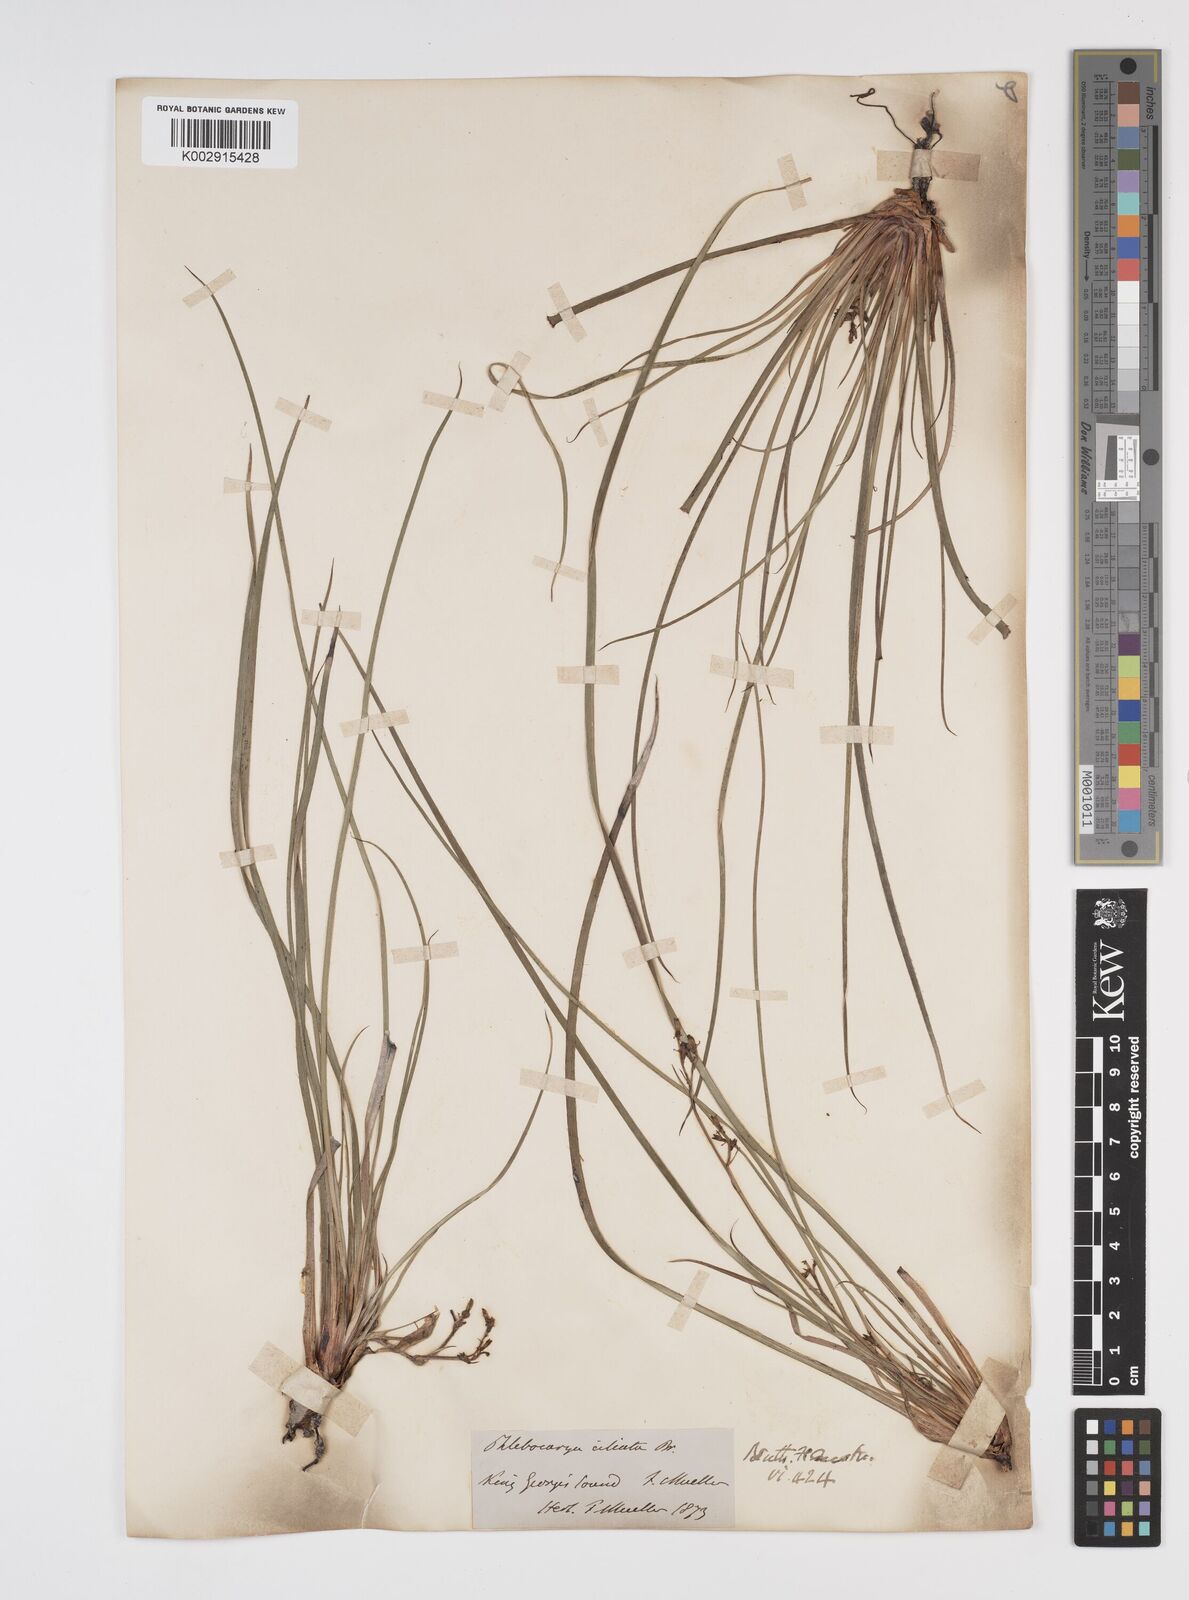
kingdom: Plantae
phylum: Tracheophyta
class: Liliopsida
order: Commelinales
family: Haemodoraceae
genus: Phlebocarya
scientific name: Phlebocarya ciliata
